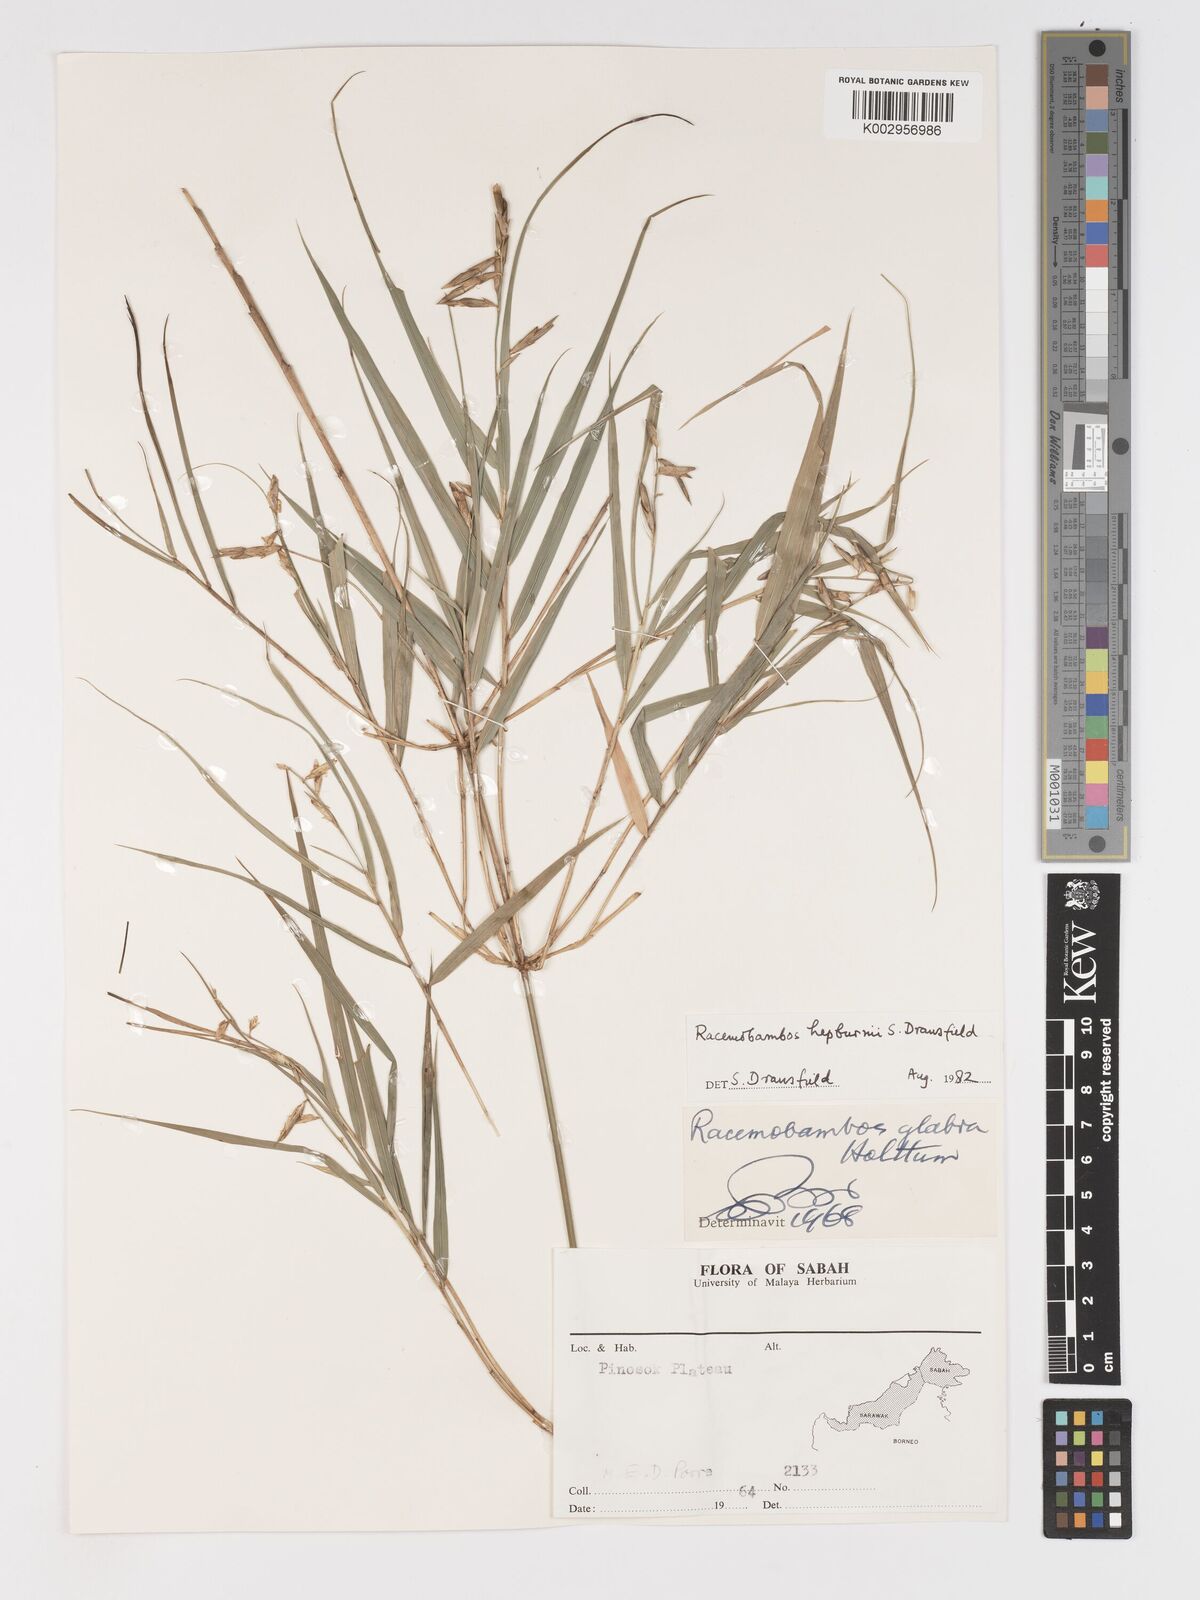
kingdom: Plantae
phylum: Tracheophyta
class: Liliopsida
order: Poales
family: Poaceae
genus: Racemobambos
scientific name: Racemobambos hepburnii
